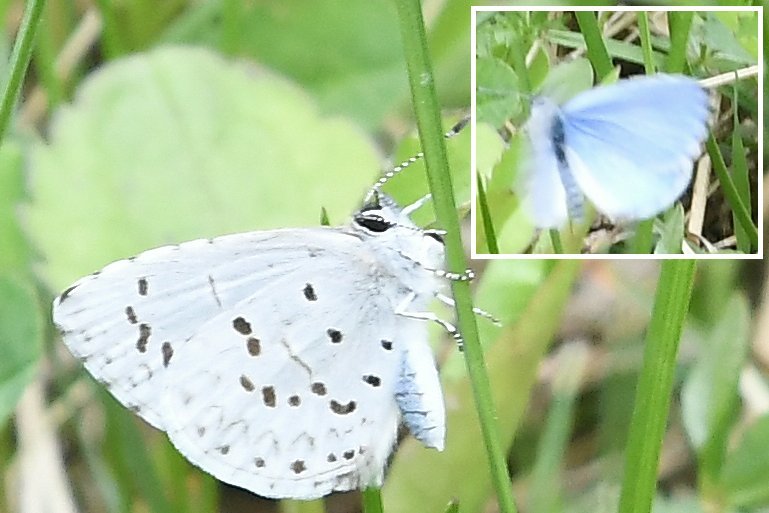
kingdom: Animalia
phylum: Arthropoda
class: Insecta
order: Lepidoptera
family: Lycaenidae
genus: Celastrina
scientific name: Celastrina serotina
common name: Cherry Gall Azure
